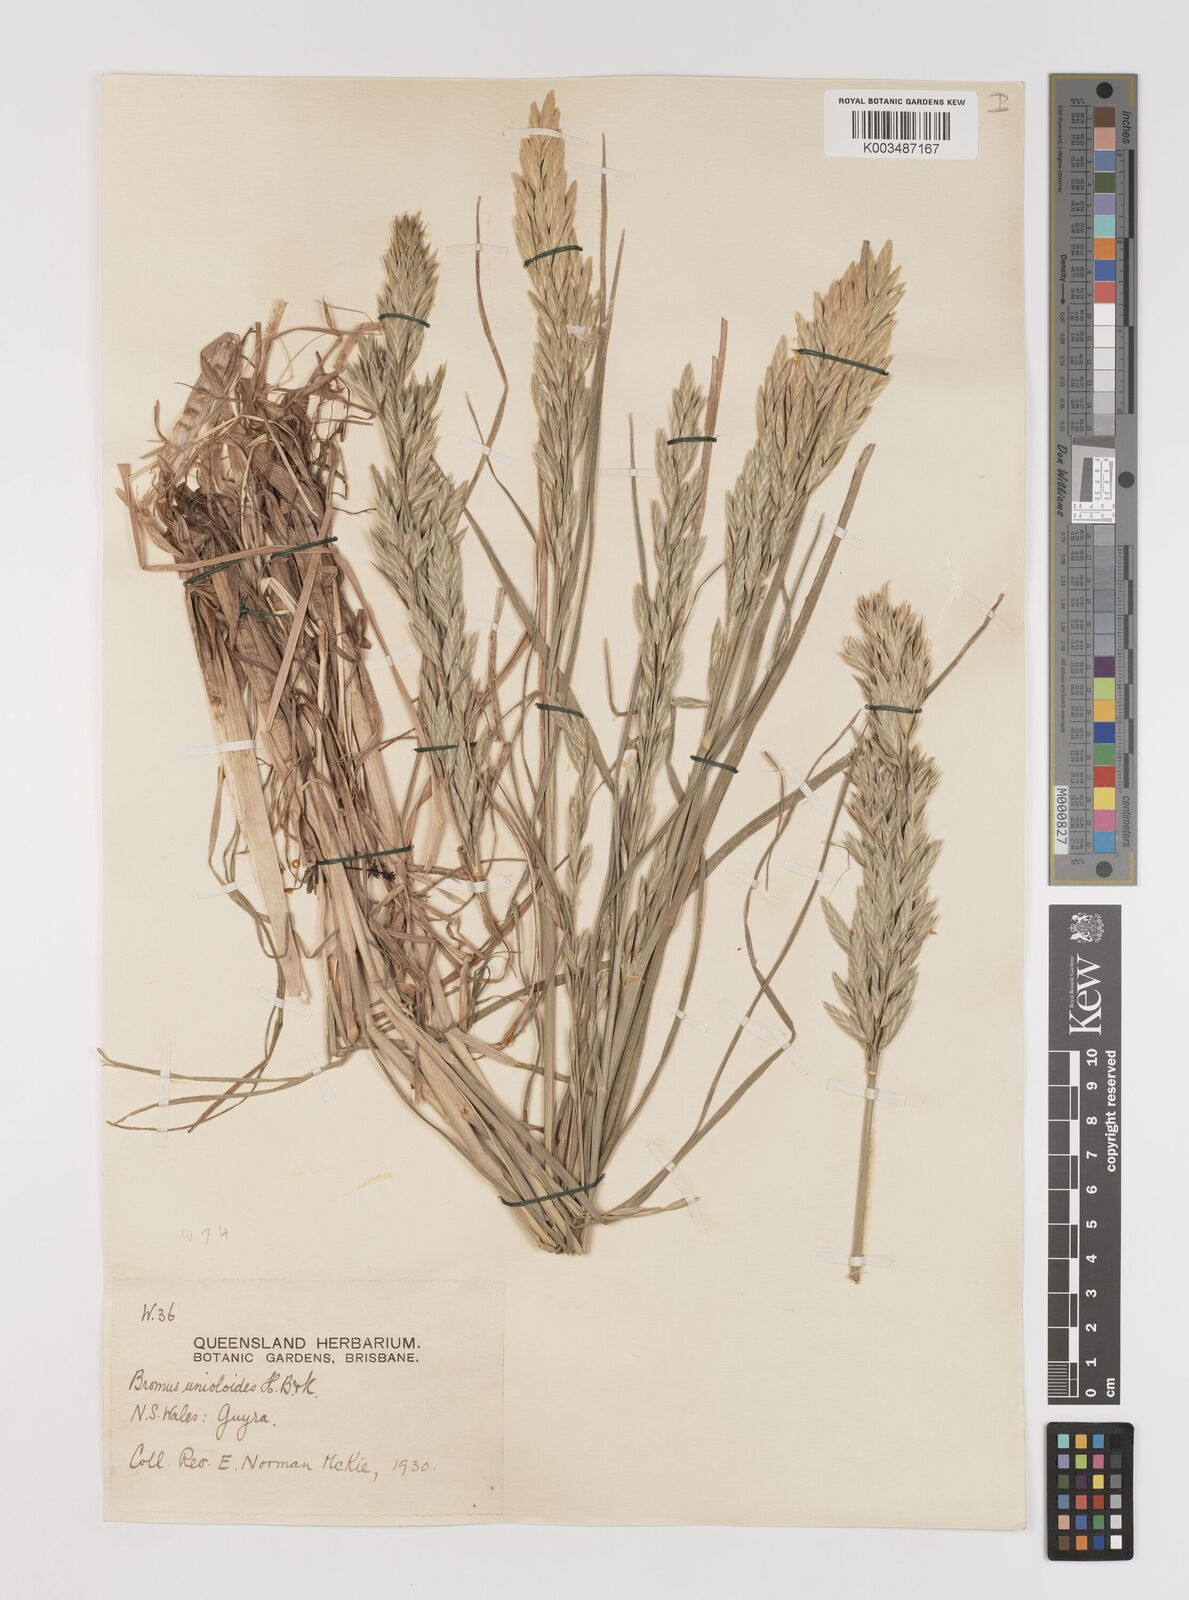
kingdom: Plantae
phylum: Tracheophyta
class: Liliopsida
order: Poales
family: Poaceae
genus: Bromus
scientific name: Bromus catharticus
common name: Rescuegrass
